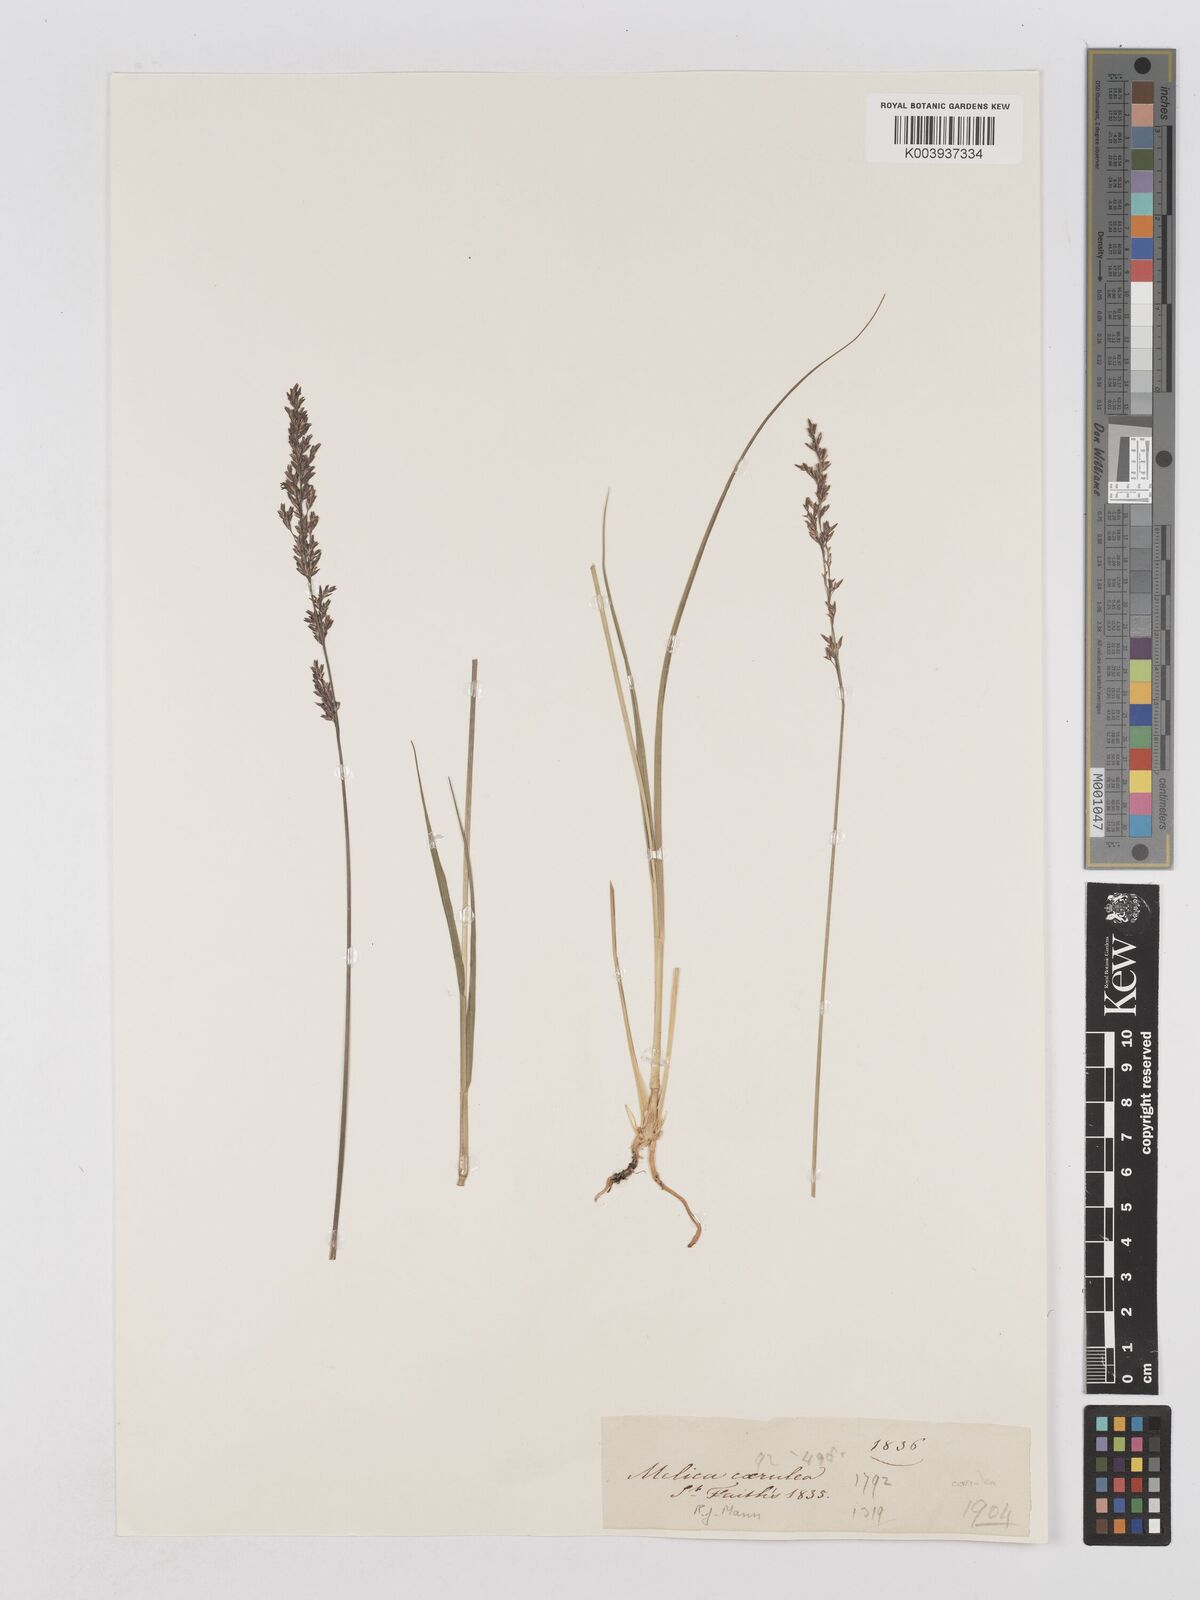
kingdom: Plantae
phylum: Tracheophyta
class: Liliopsida
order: Poales
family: Poaceae
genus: Molinia
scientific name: Molinia caerulea
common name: Purple moor-grass
